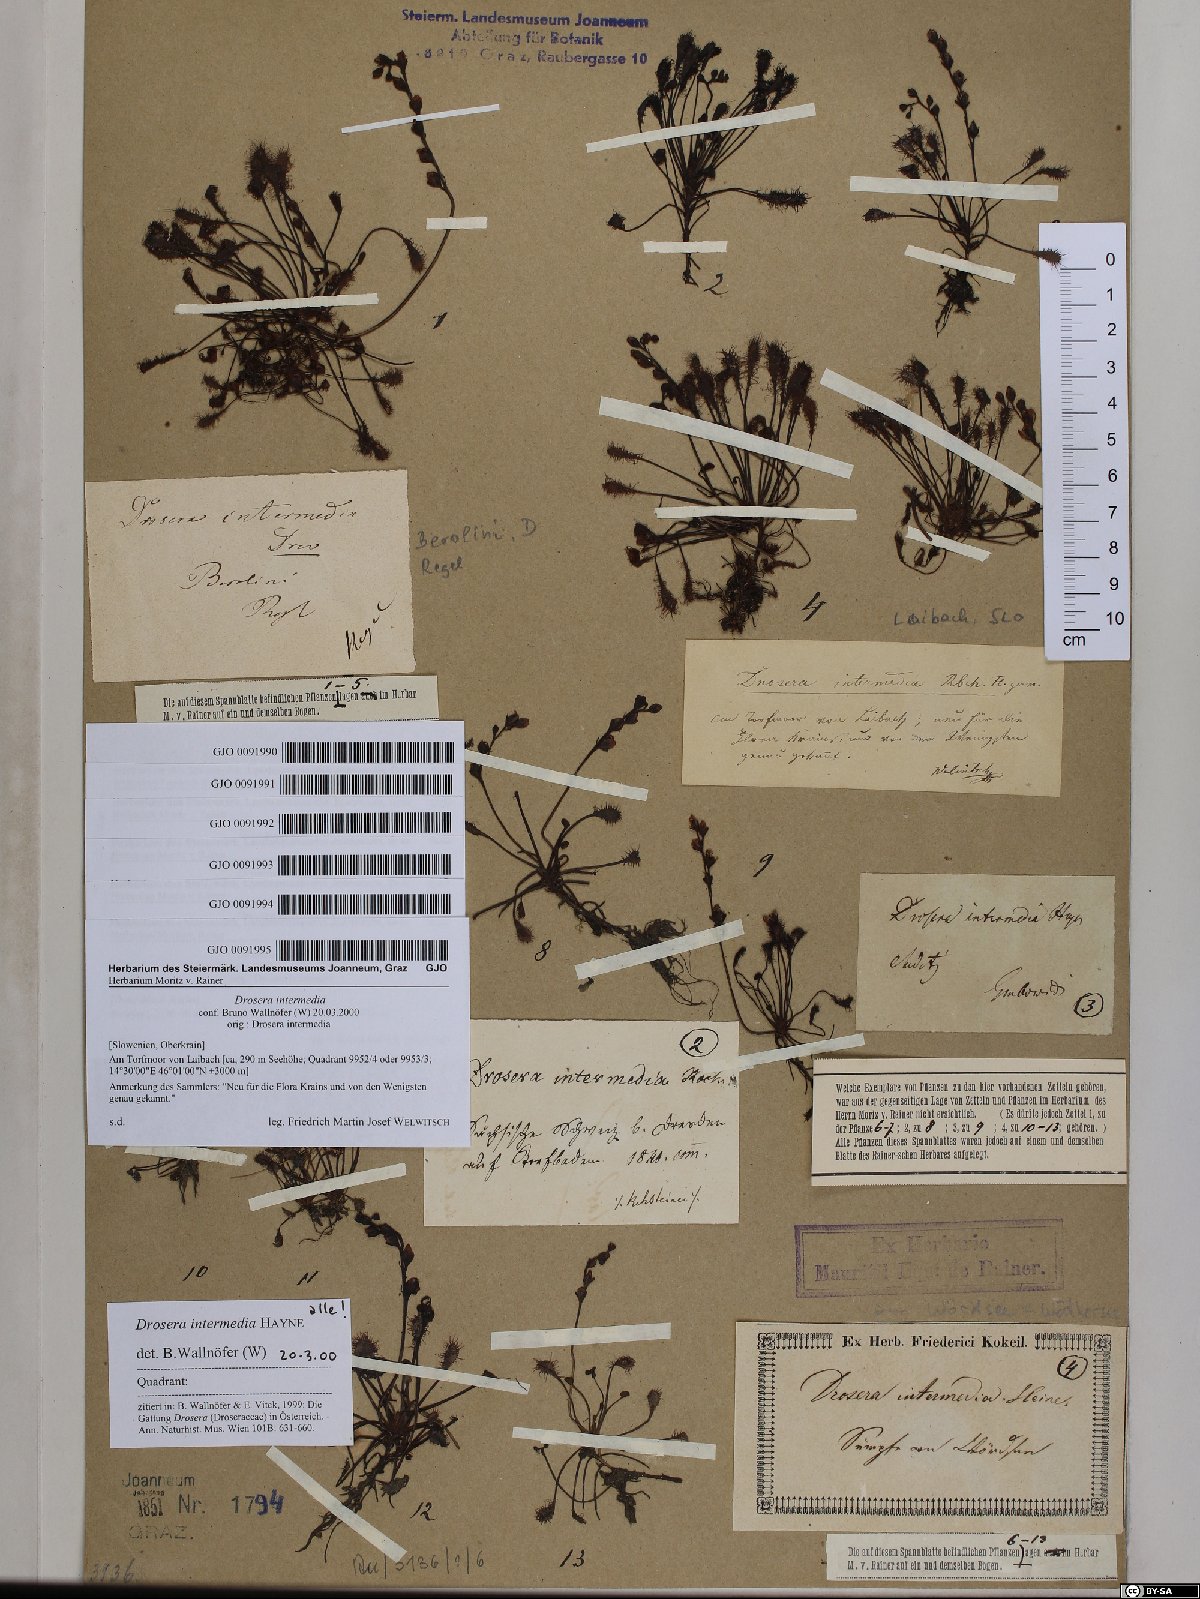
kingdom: Plantae
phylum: Tracheophyta
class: Magnoliopsida
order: Caryophyllales
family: Droseraceae
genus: Drosera
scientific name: Drosera intermedia
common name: Oblong-leaved sundew
